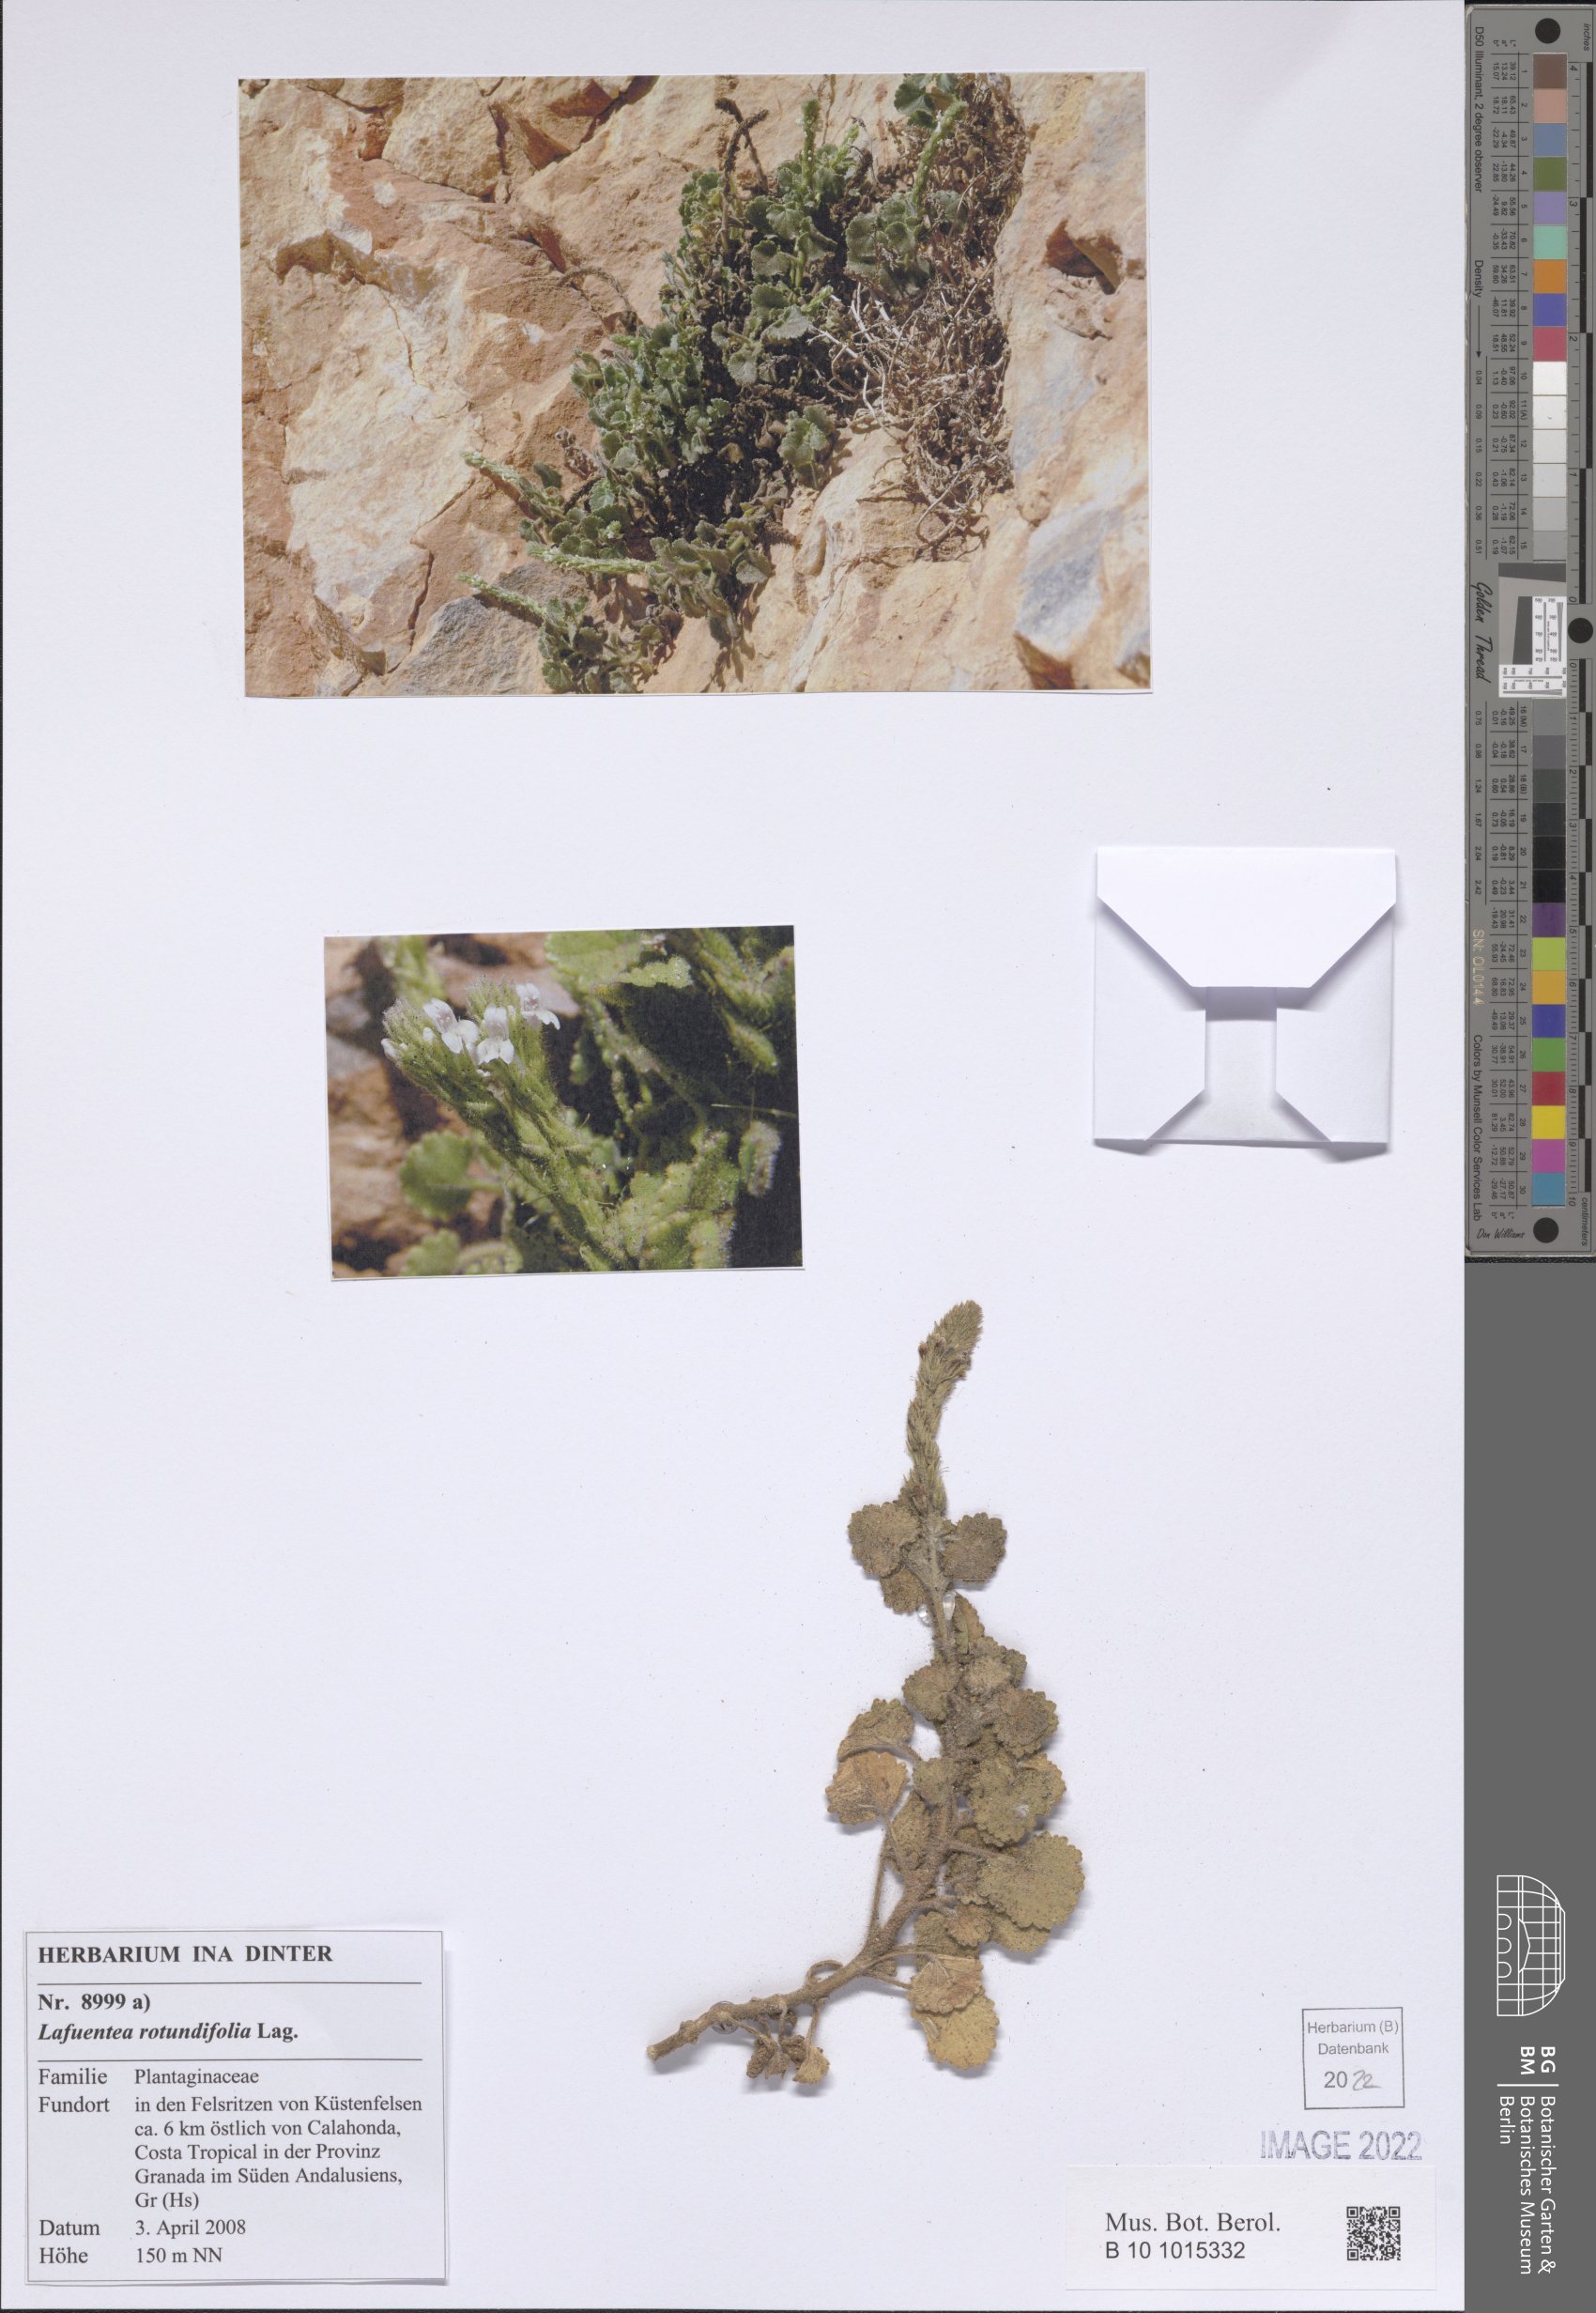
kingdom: Plantae
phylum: Tracheophyta
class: Magnoliopsida
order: Lamiales
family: Plantaginaceae
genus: Lafuentea
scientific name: Lafuentea rotundifolia
